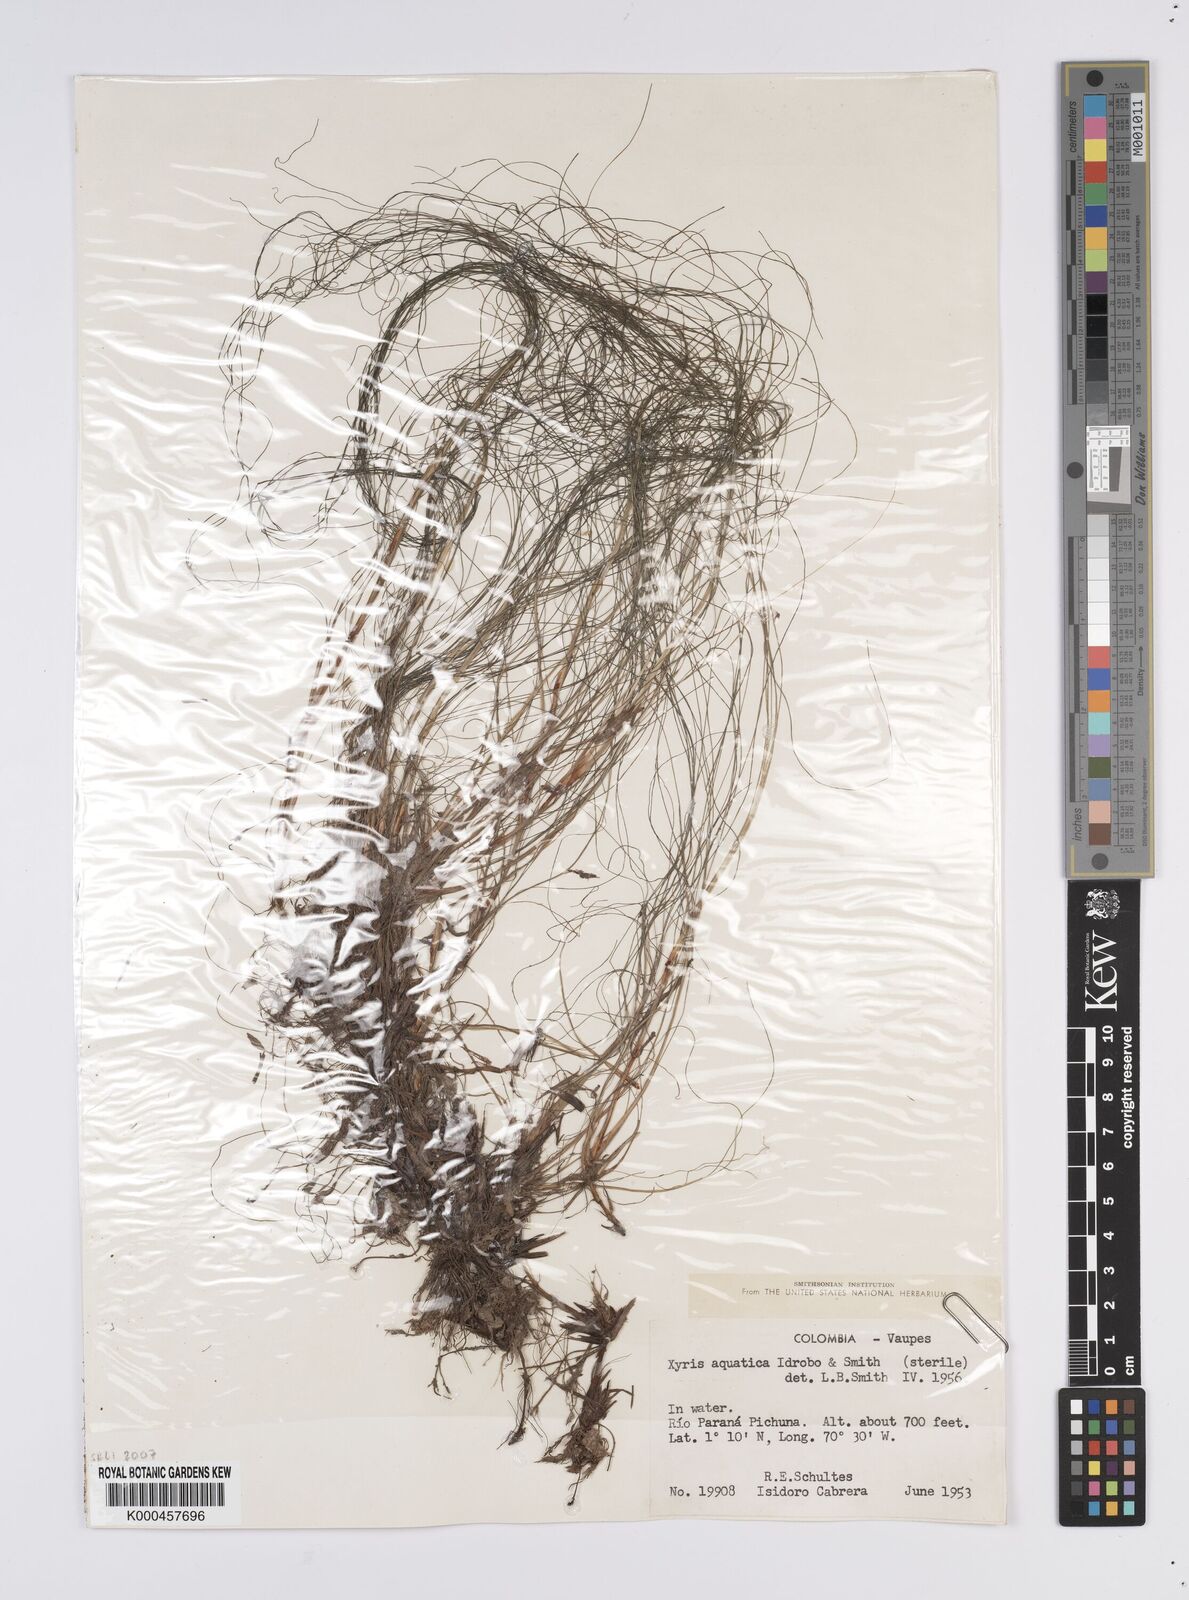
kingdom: Plantae
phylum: Tracheophyta
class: Liliopsida
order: Poales
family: Xyridaceae
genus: Xyris
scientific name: Xyris aquatica
